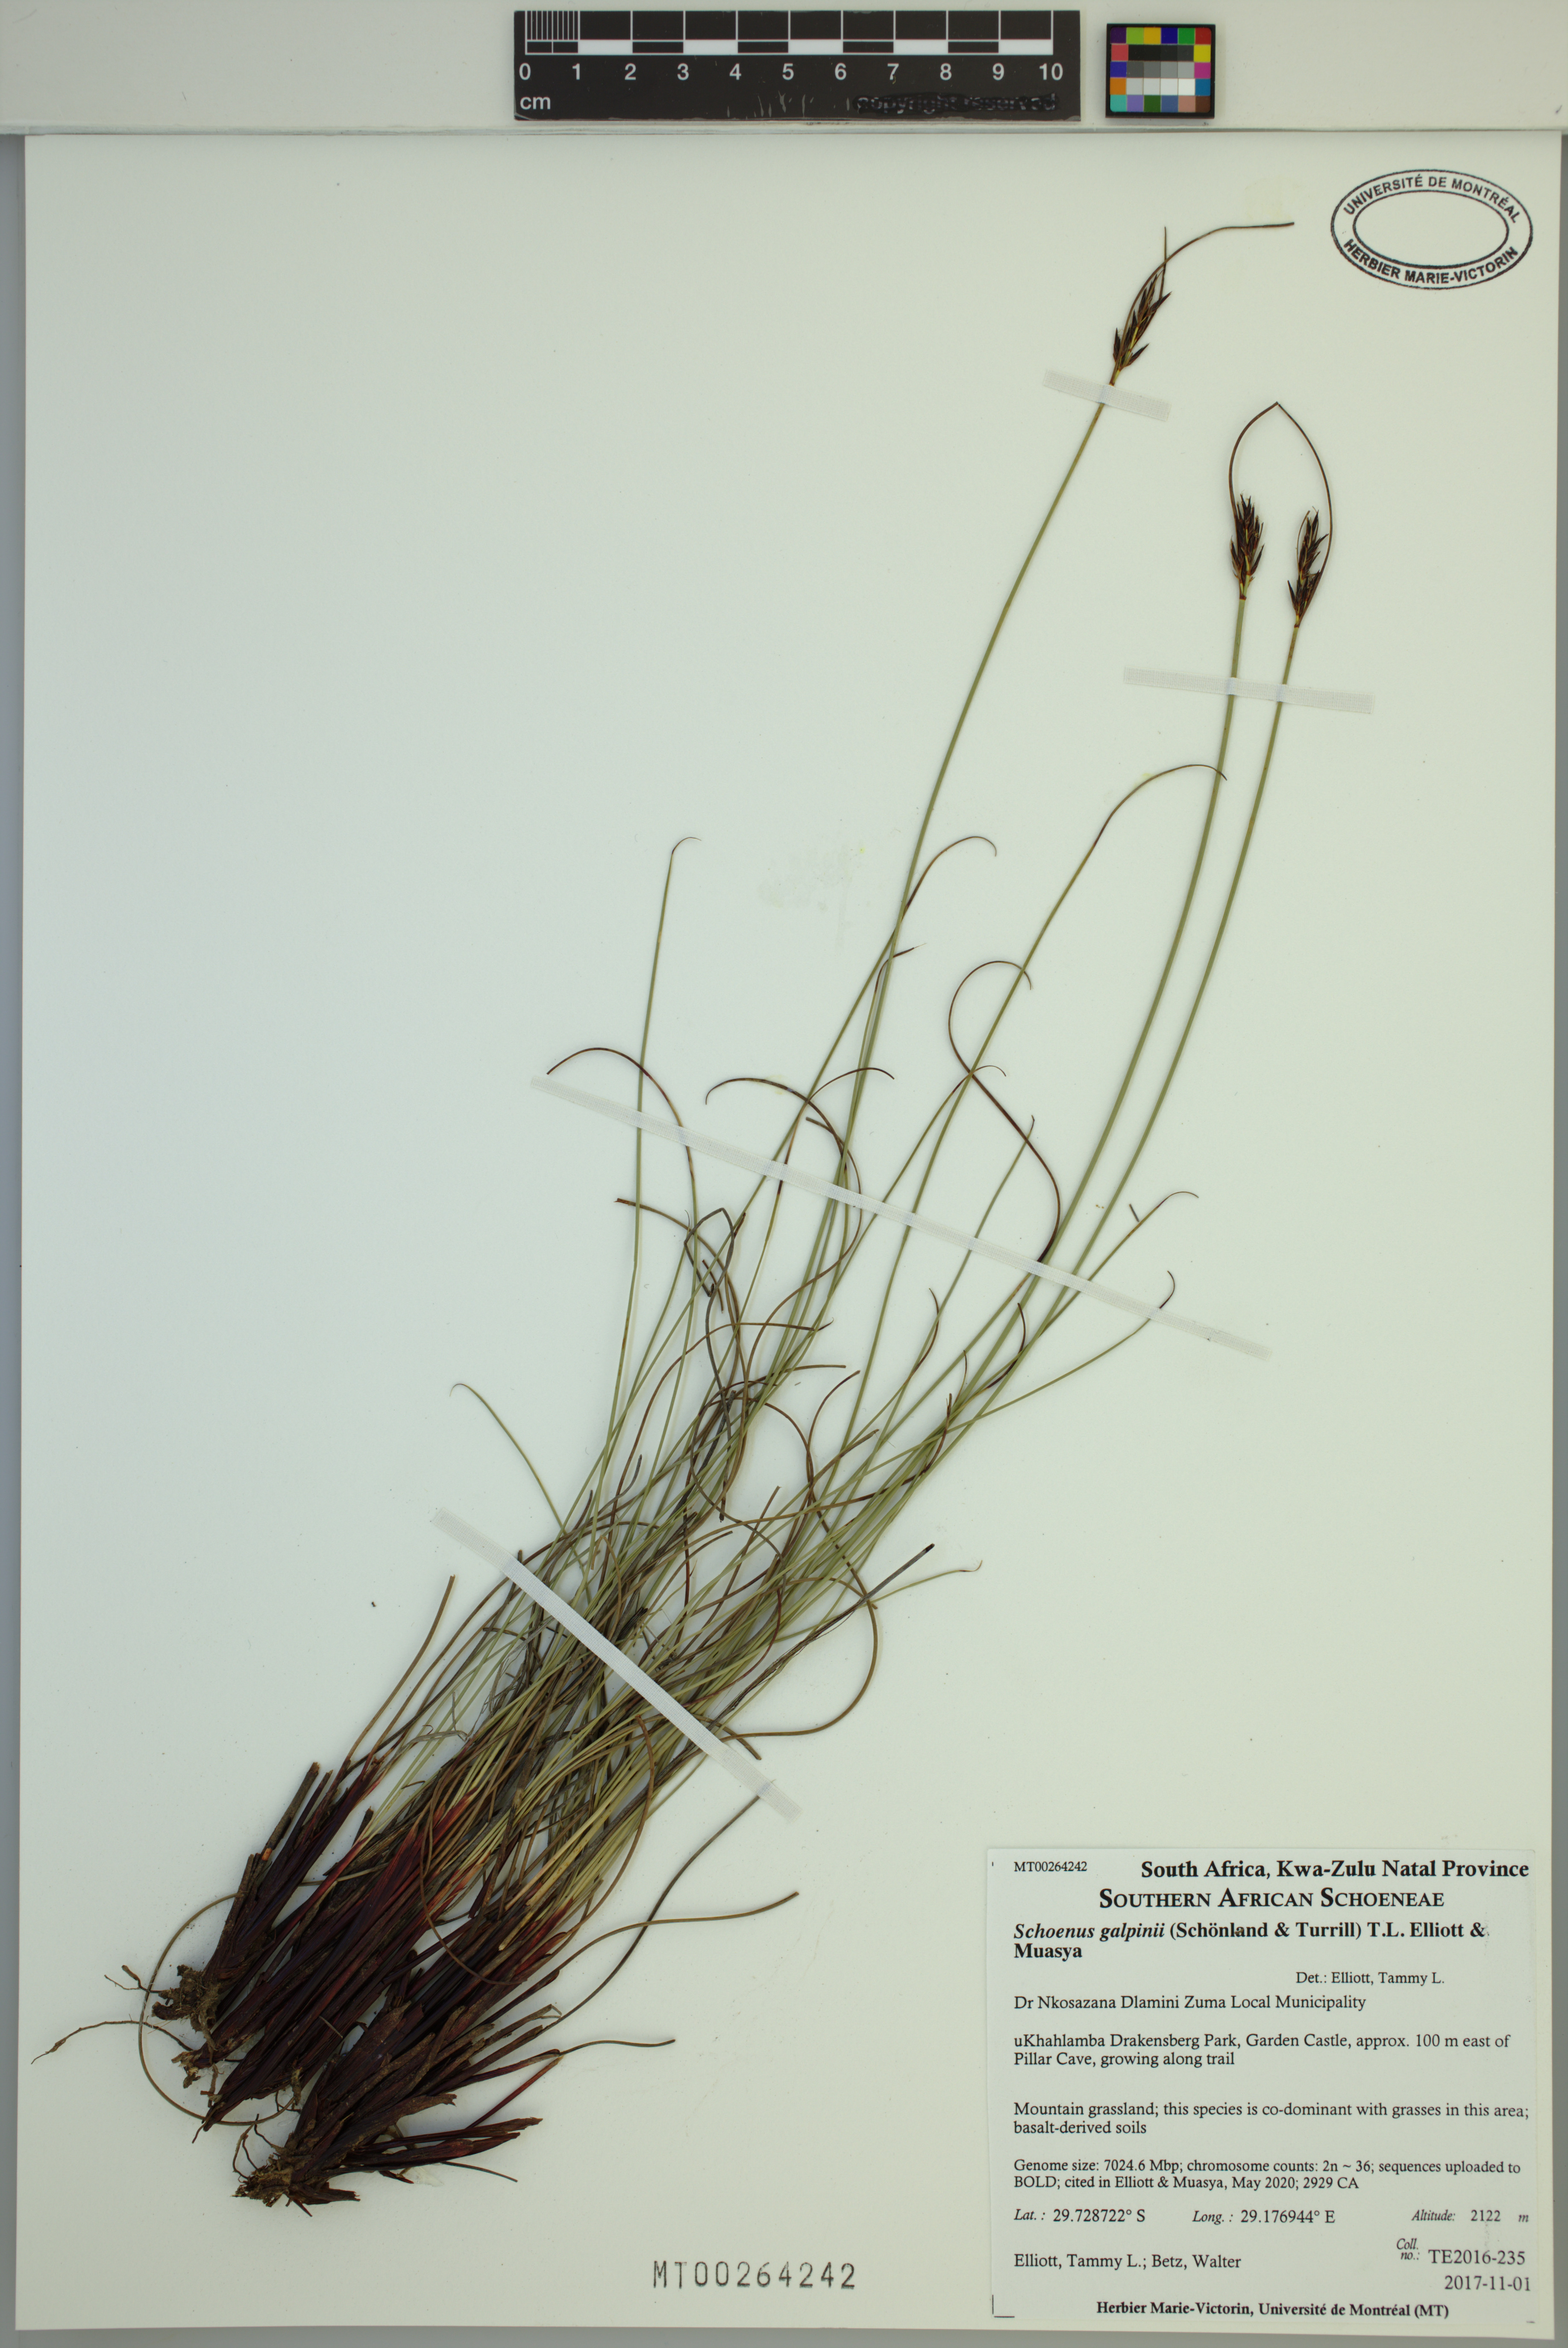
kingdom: Plantae
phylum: Tracheophyta
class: Liliopsida
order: Poales
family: Cyperaceae
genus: Schoenus
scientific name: Schoenus galpinii
